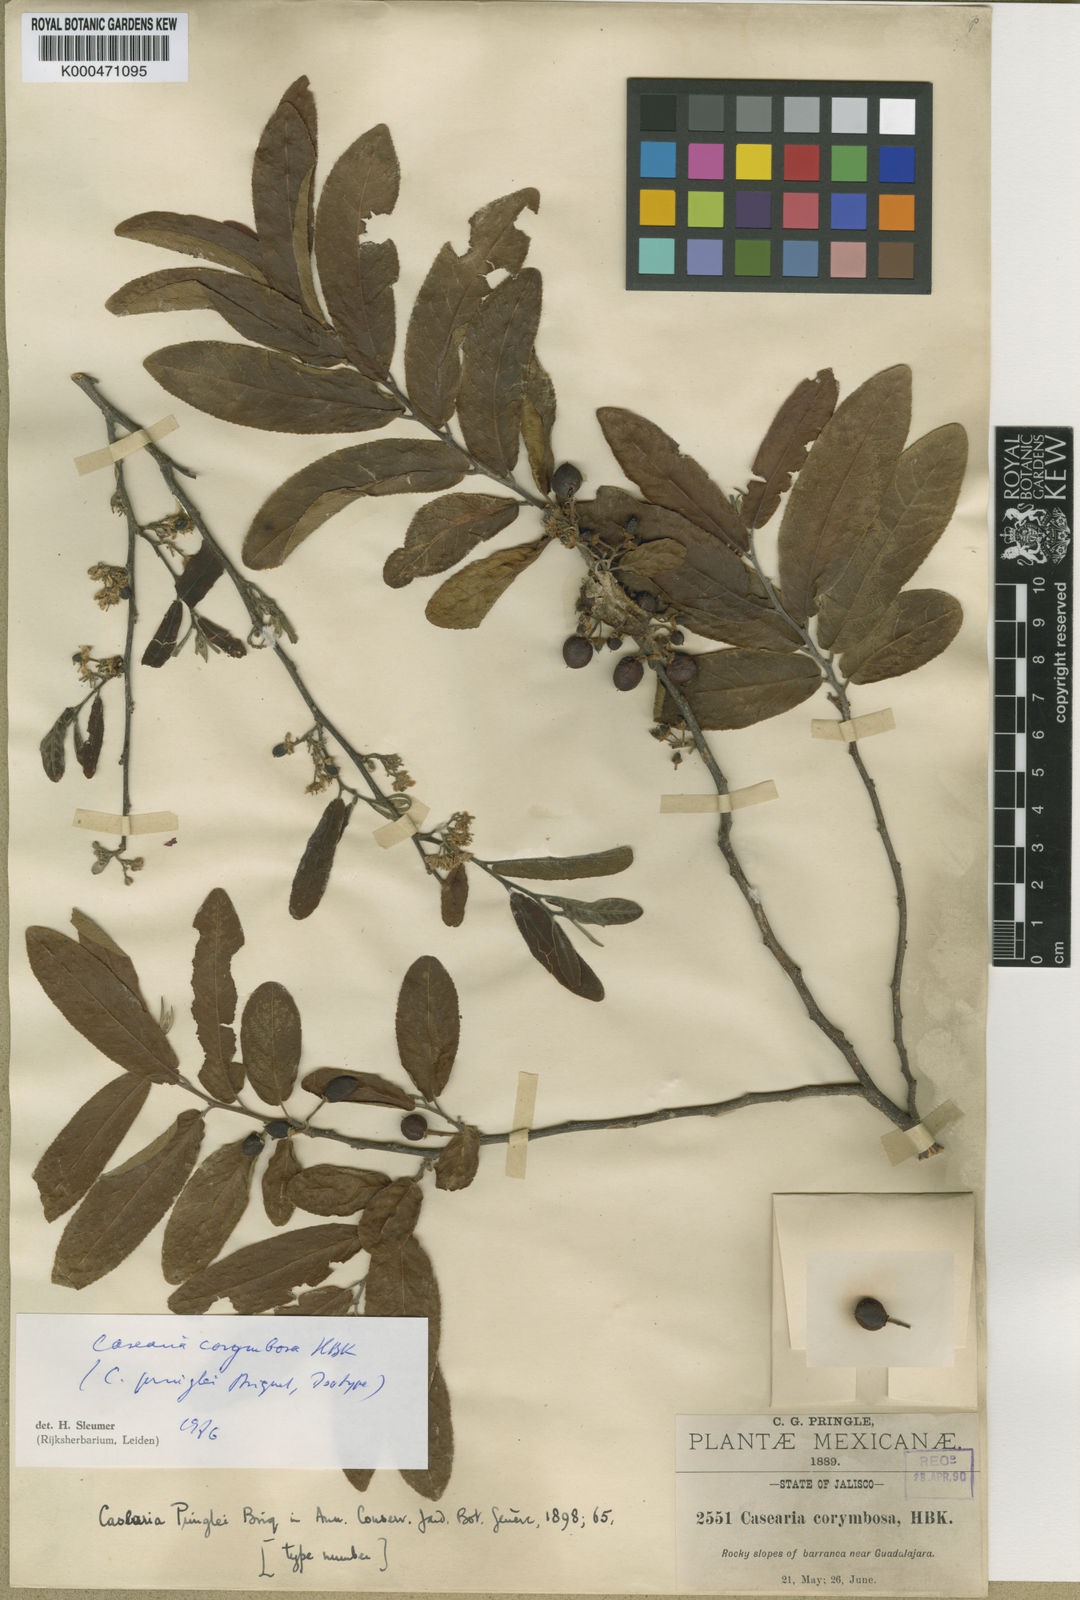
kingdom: Plantae
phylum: Tracheophyta
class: Magnoliopsida
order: Malpighiales
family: Salicaceae
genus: Casearia
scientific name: Casearia corymbosa
